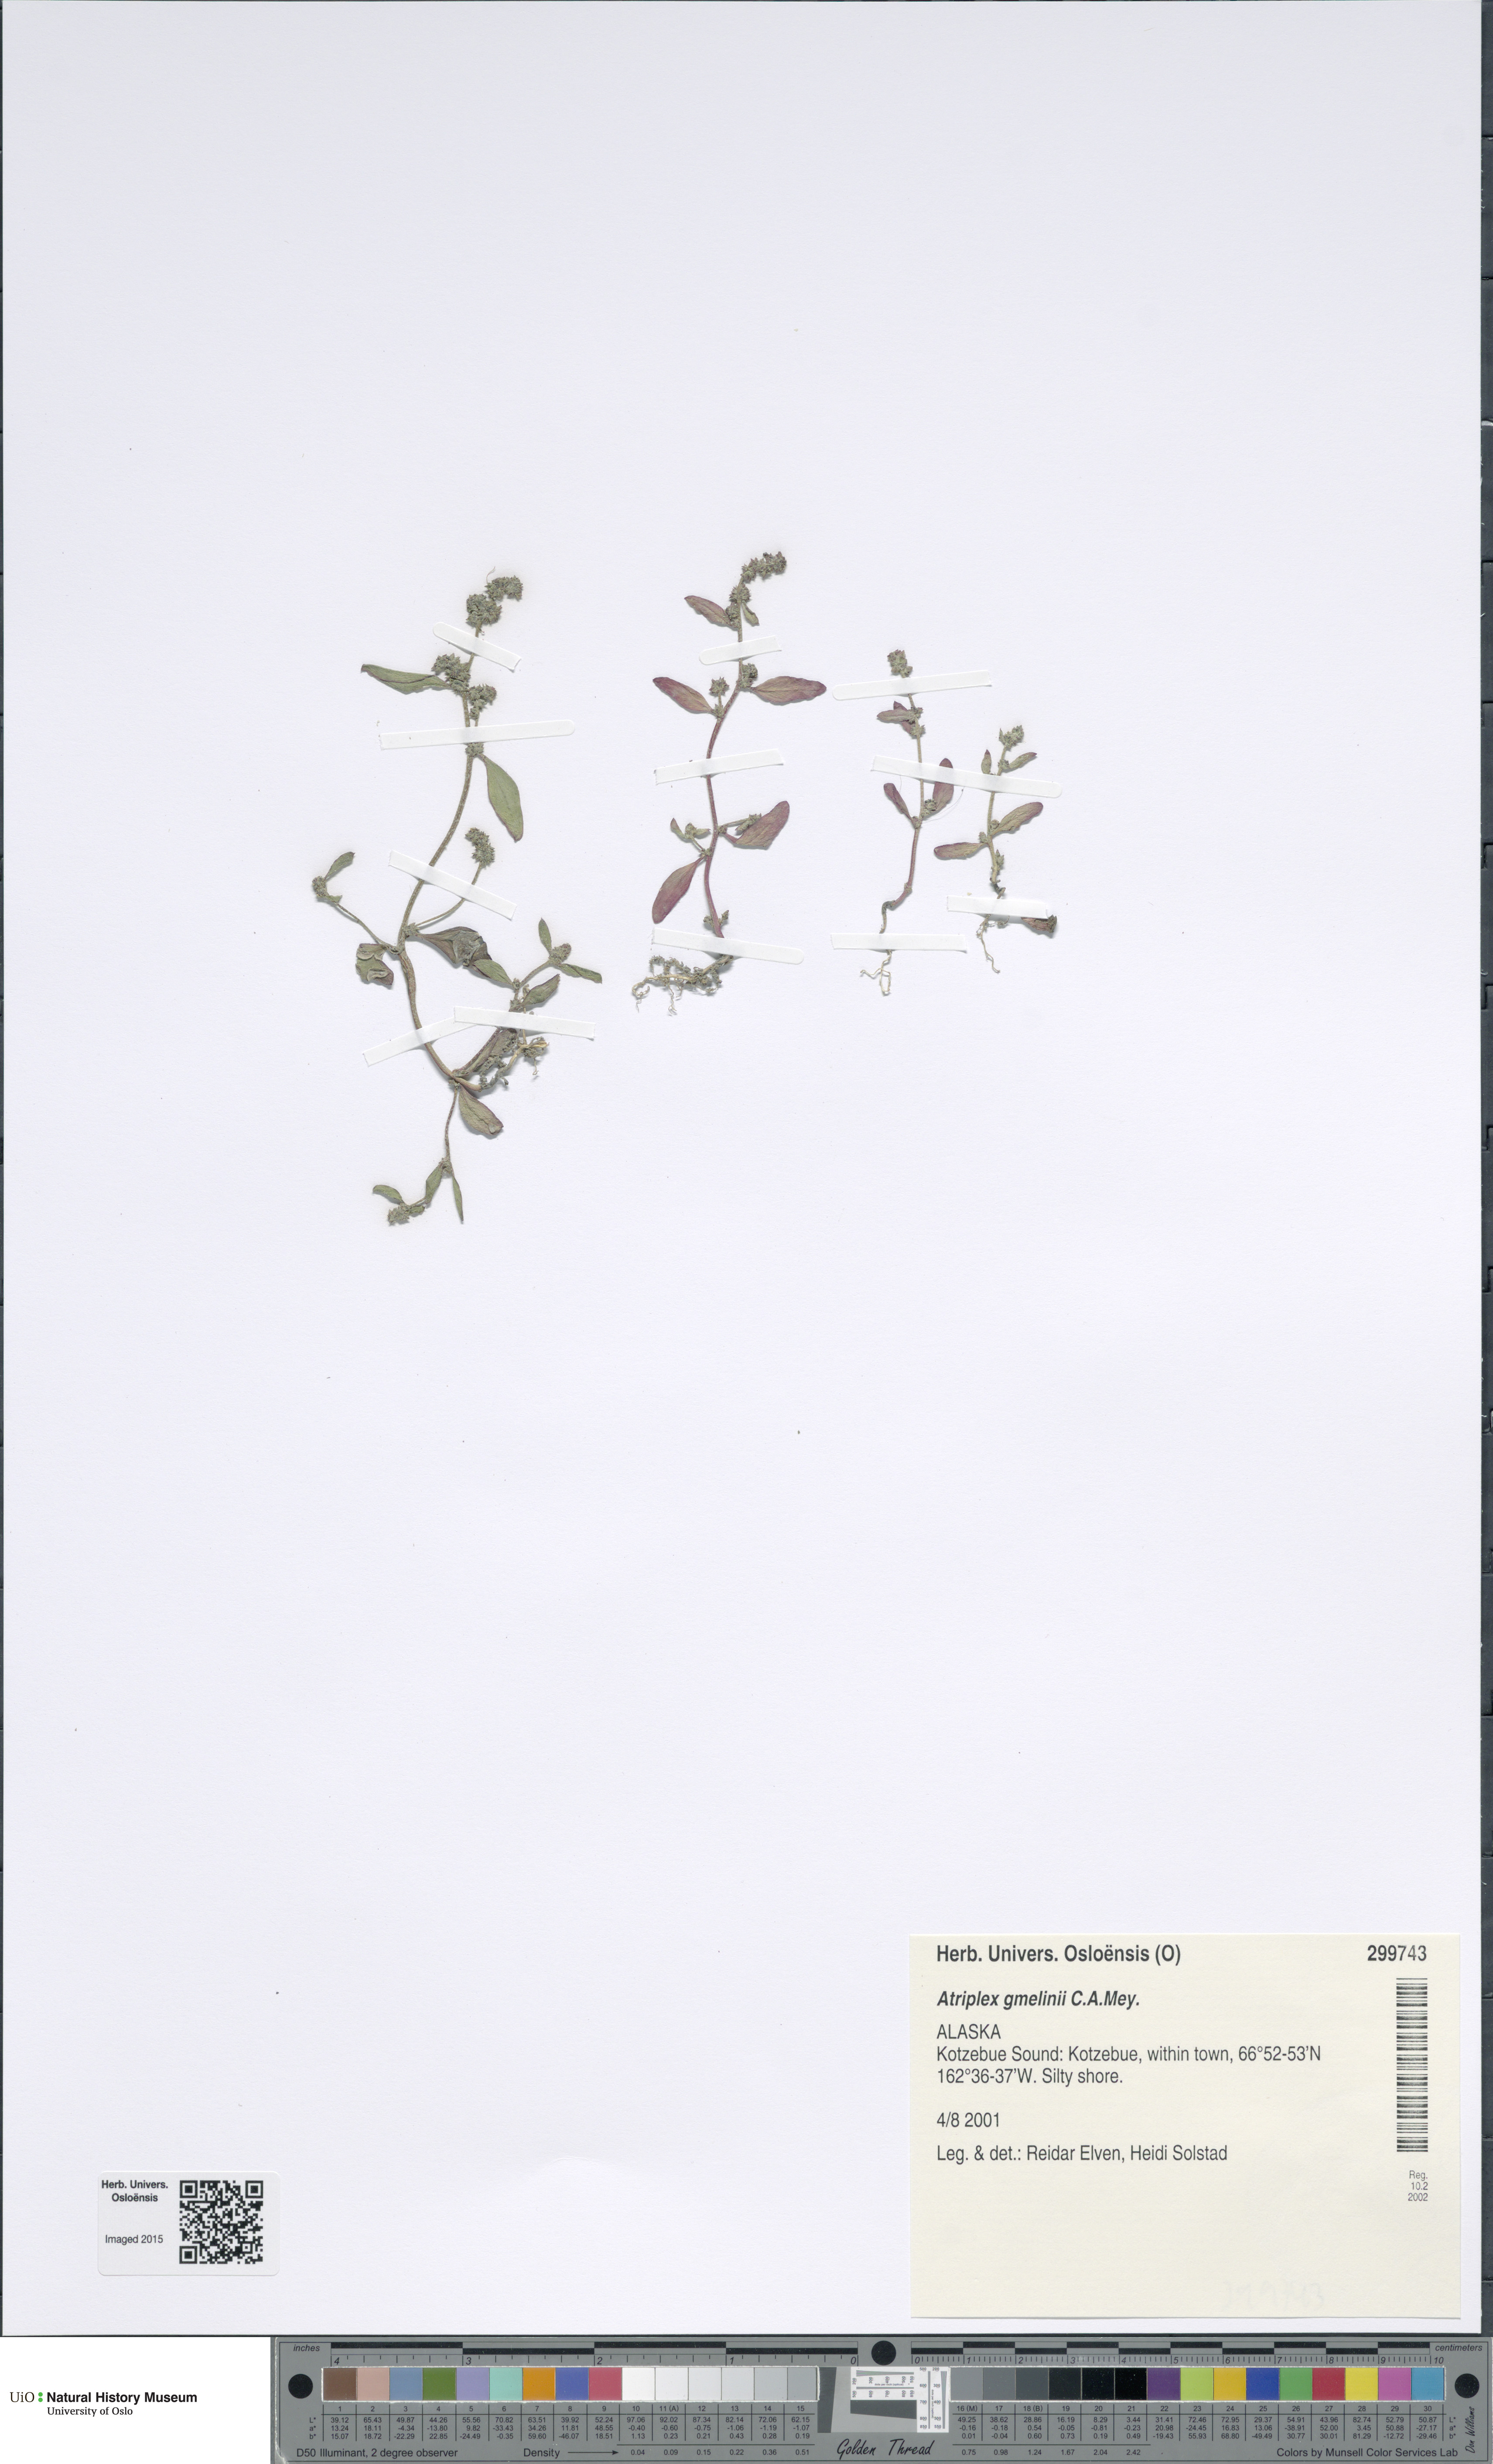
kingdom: Plantae
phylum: Tracheophyta
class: Magnoliopsida
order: Caryophyllales
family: Amaranthaceae
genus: Atriplex
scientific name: Atriplex gmelinii
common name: Gmelin's orach
